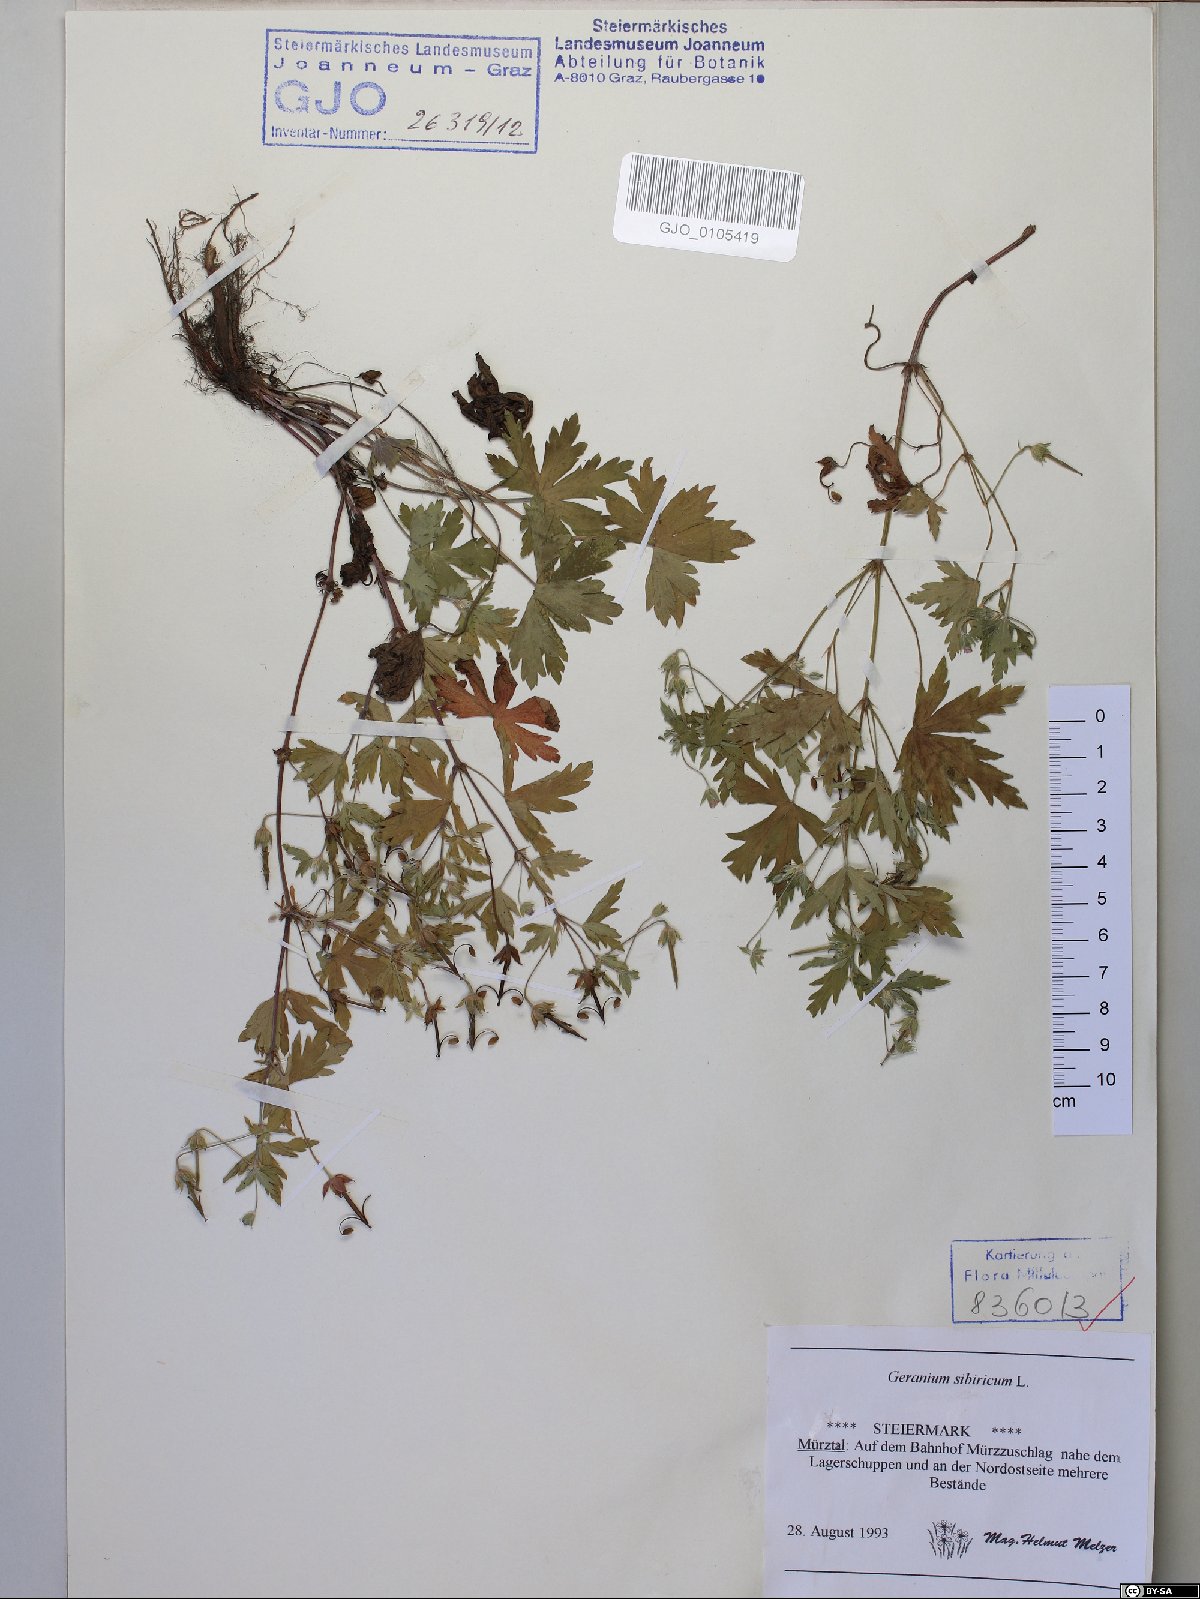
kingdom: Plantae
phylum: Tracheophyta
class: Magnoliopsida
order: Geraniales
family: Geraniaceae
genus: Geranium
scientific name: Geranium sibiricum
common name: Siberian crane's-bill
